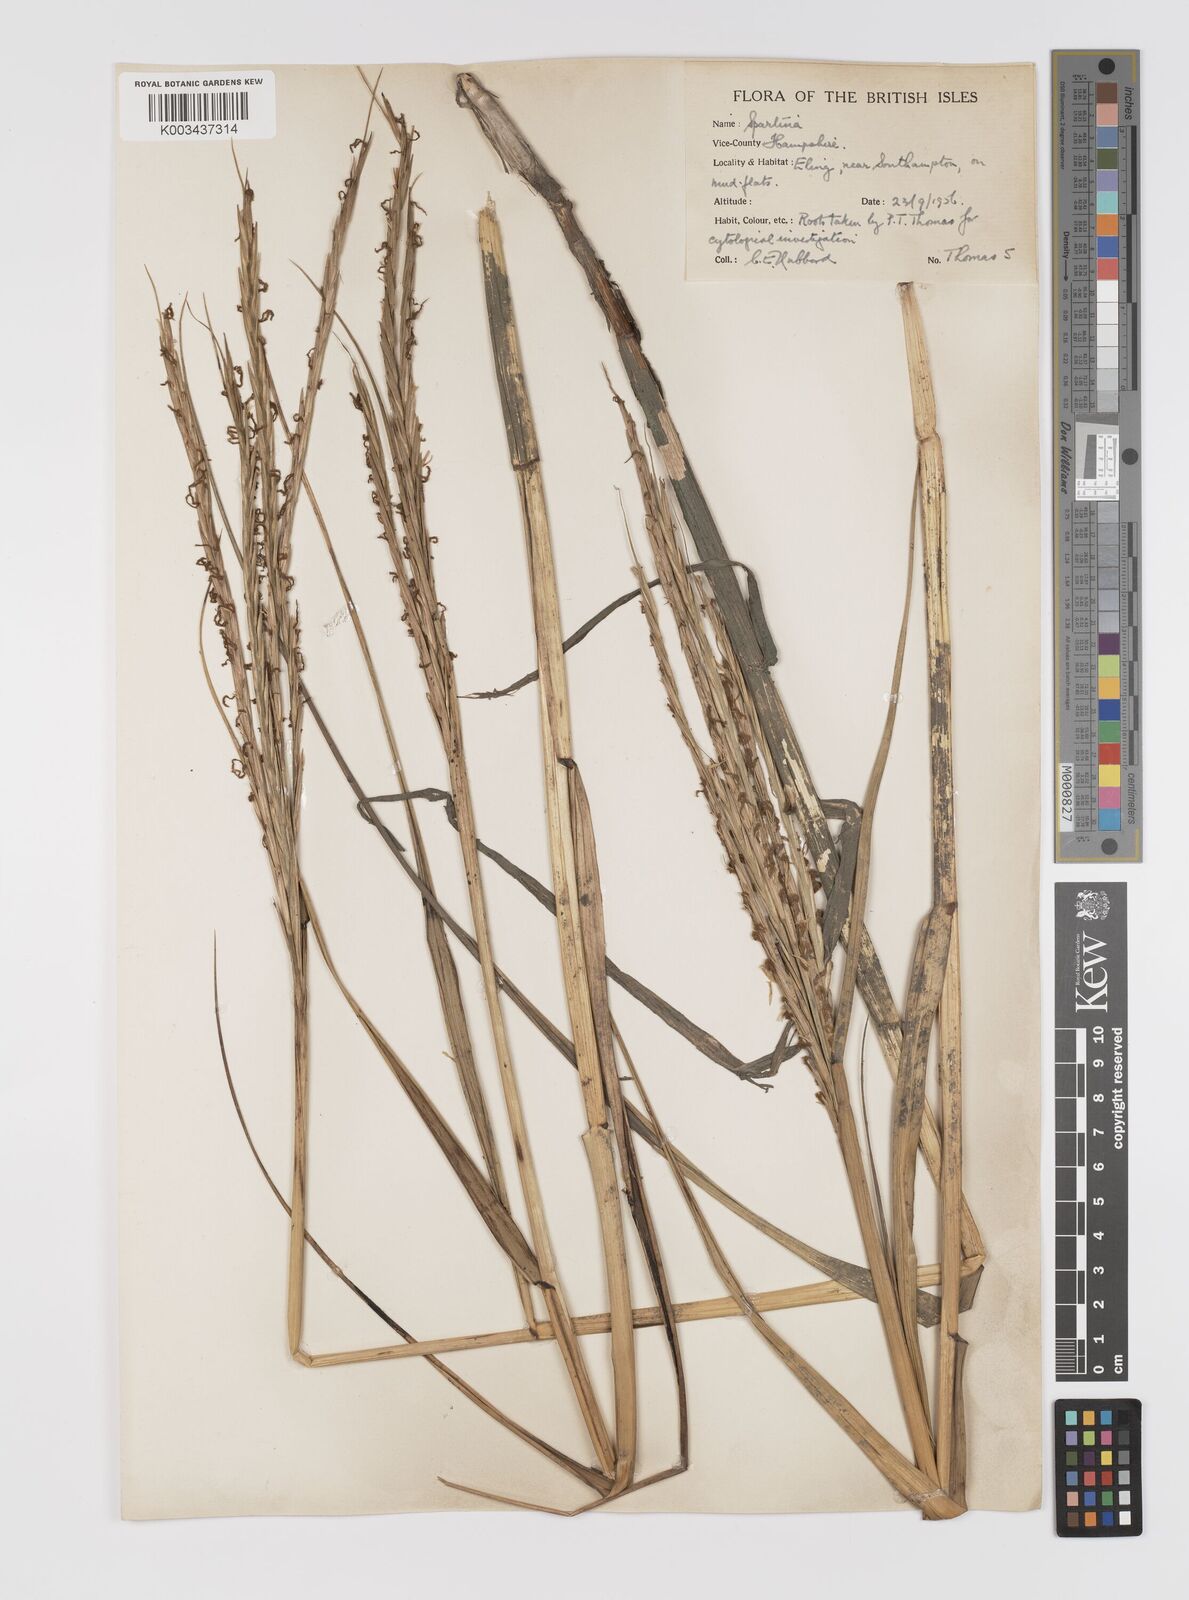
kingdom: Plantae
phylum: Tracheophyta
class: Liliopsida
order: Poales
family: Poaceae
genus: Sporobolus
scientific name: Sporobolus townsendii
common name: Townsend's cordgrass
